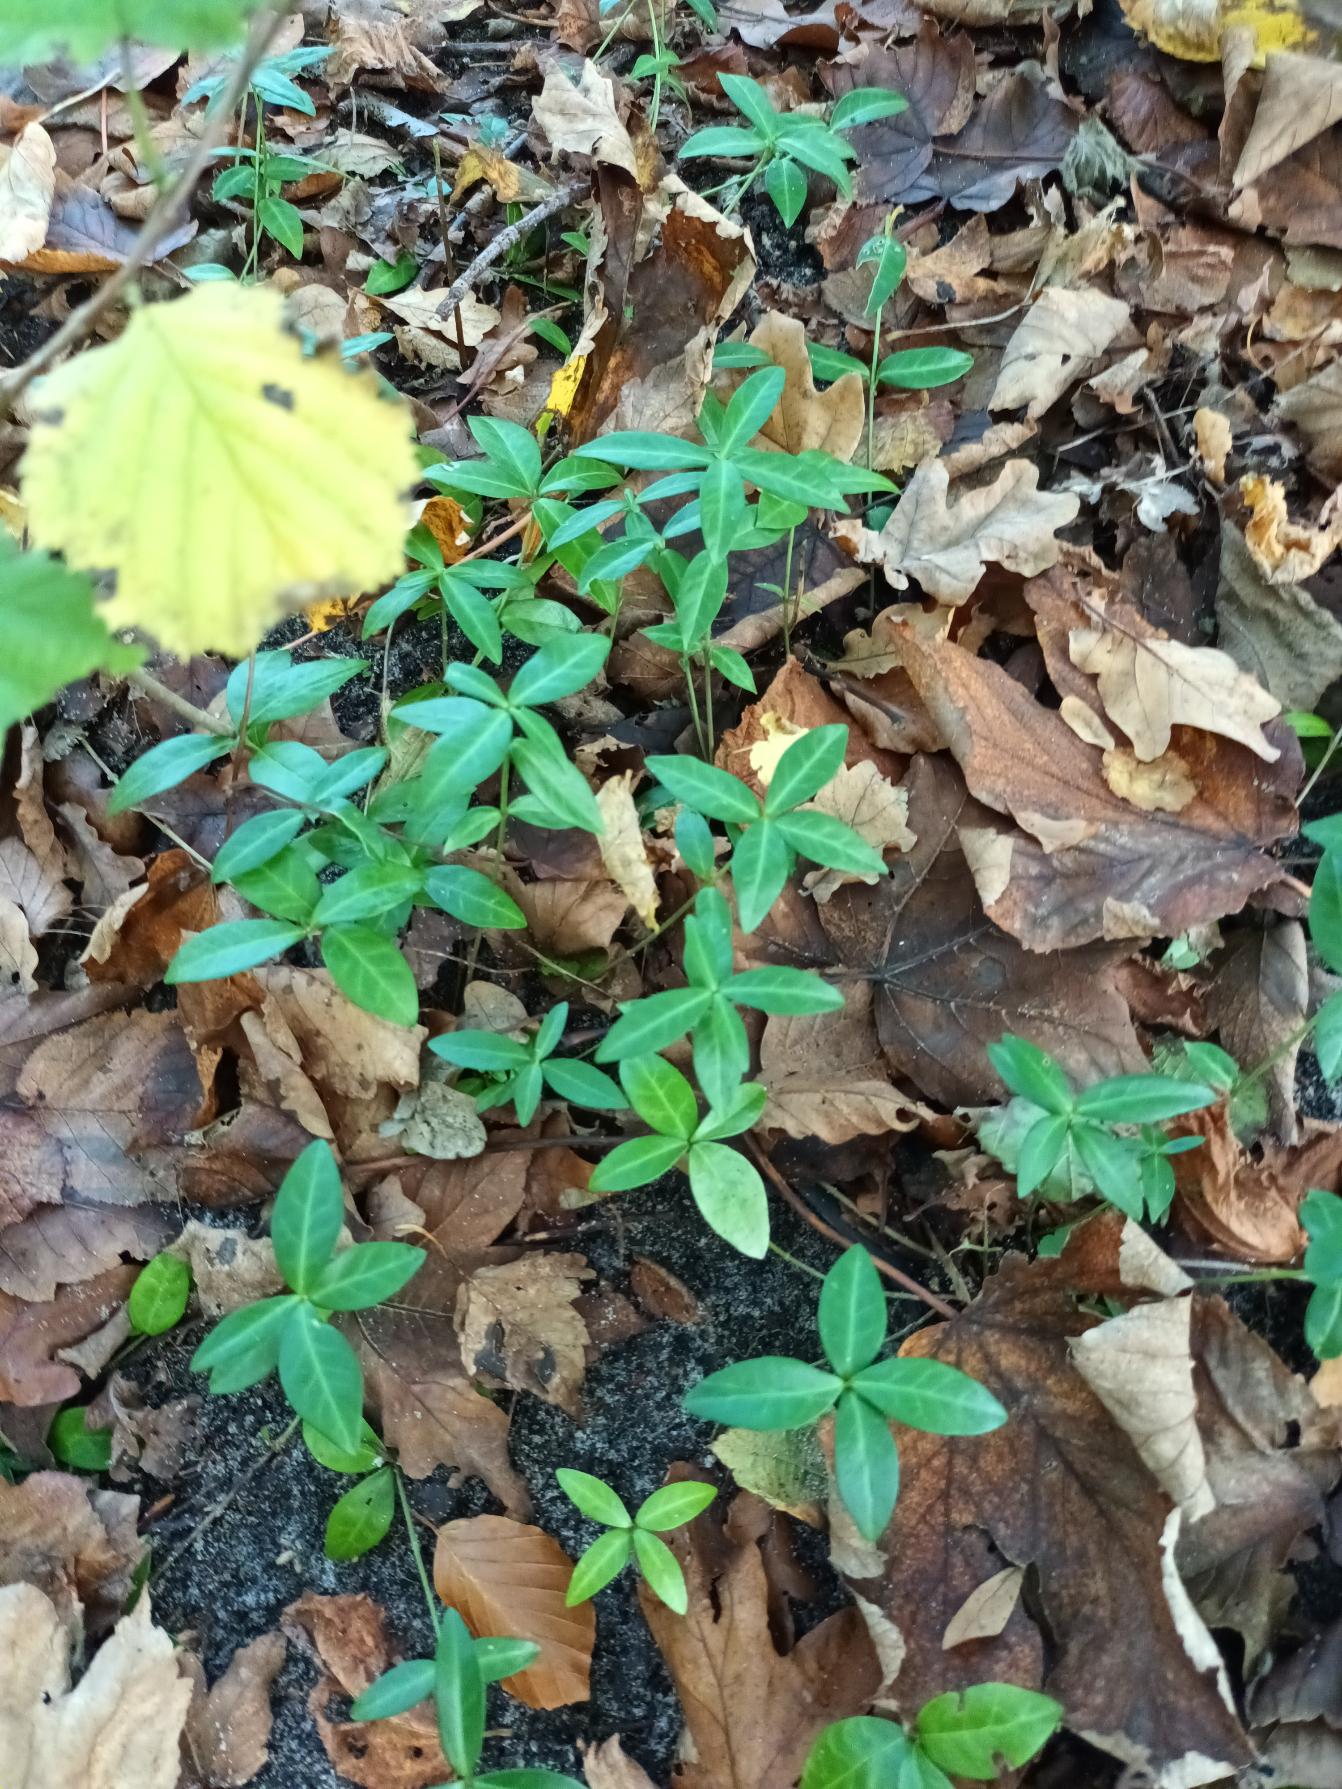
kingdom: Plantae
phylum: Tracheophyta
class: Magnoliopsida
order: Gentianales
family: Apocynaceae
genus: Vinca
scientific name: Vinca minor
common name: Liden singrøn
